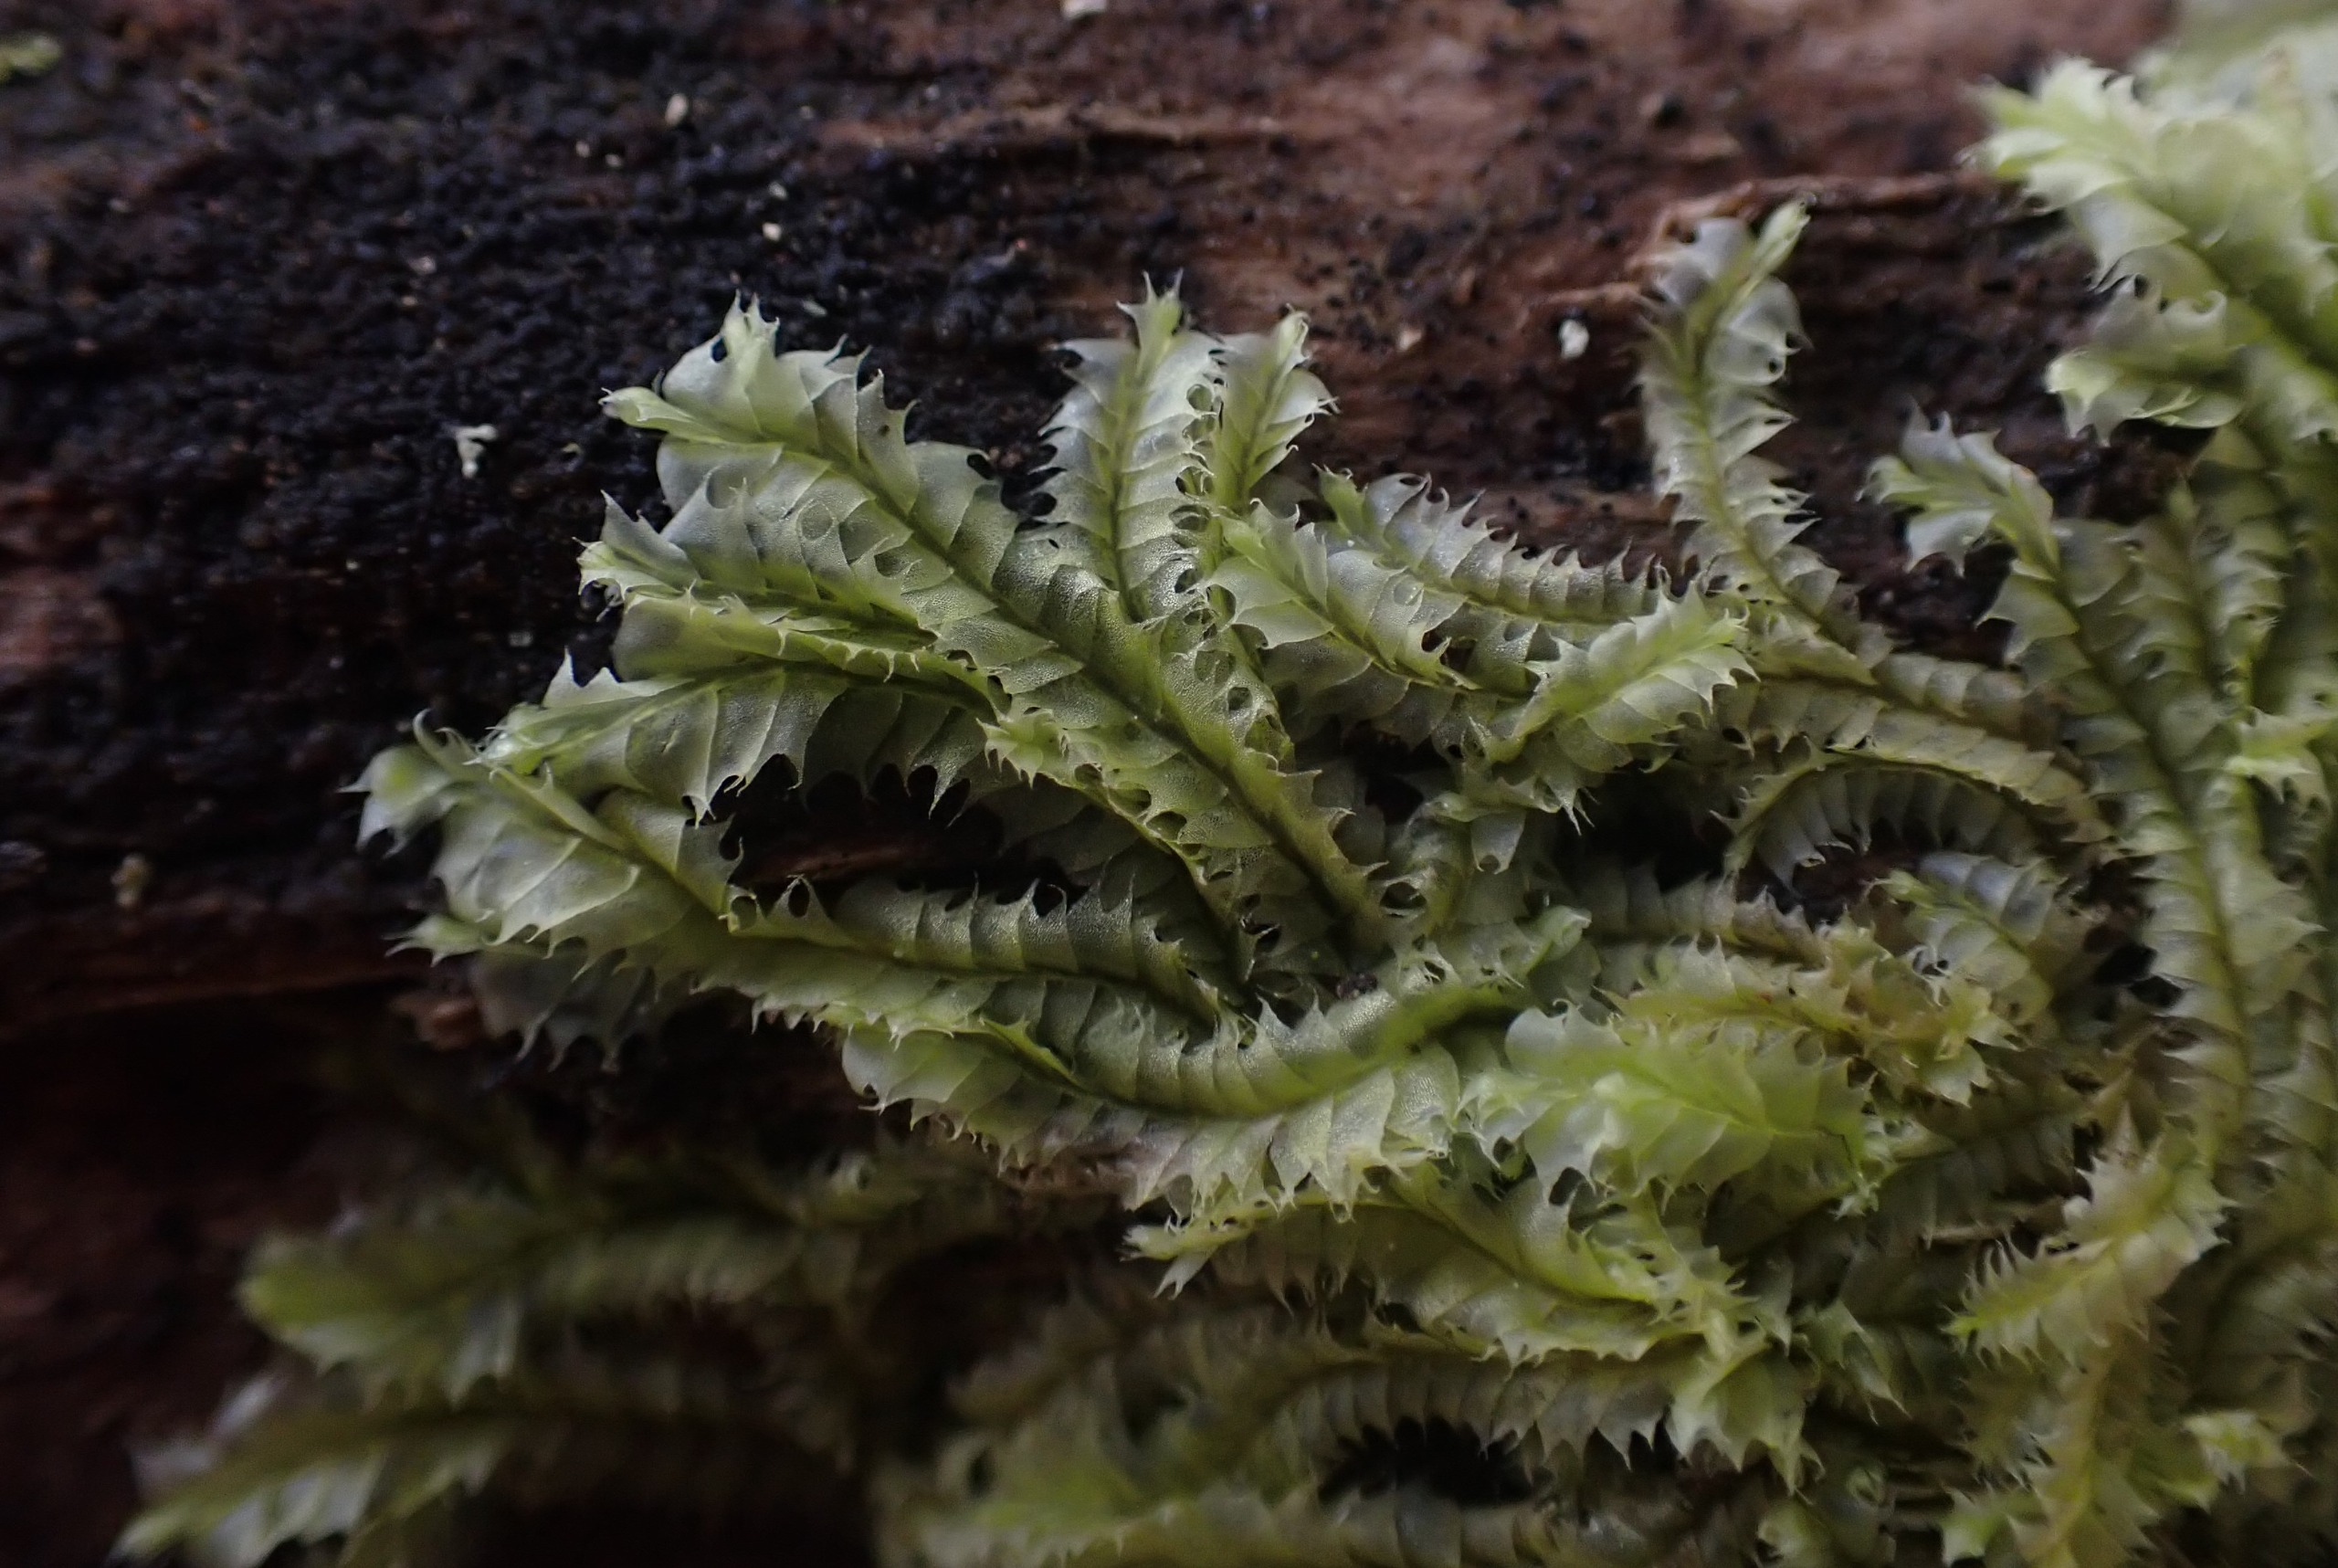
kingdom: Plantae
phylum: Marchantiophyta
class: Jungermanniopsida
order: Jungermanniales
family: Lophocoleaceae
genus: Lophocolea
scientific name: Lophocolea bidentata
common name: Sylspidset kamsvøb
